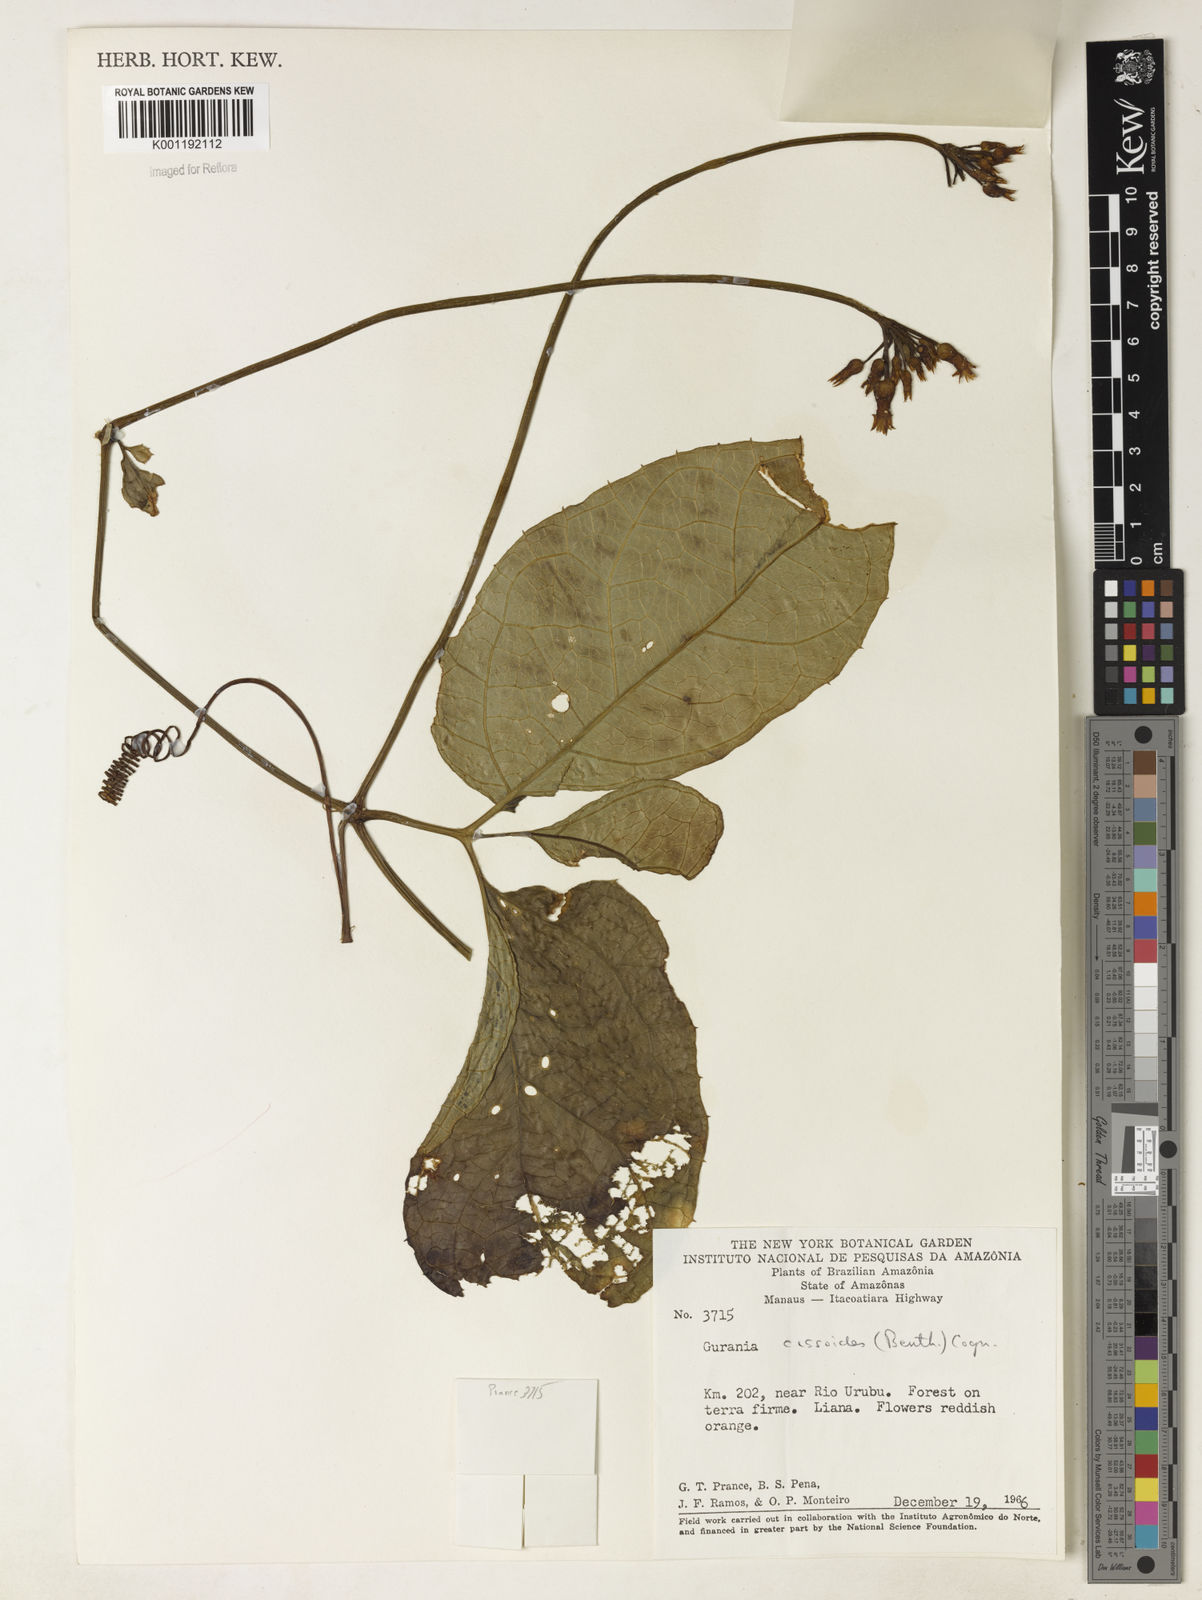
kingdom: Plantae
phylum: Tracheophyta
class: Magnoliopsida
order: Cucurbitales
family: Cucurbitaceae
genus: Gurania
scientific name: Gurania bignoniacea
